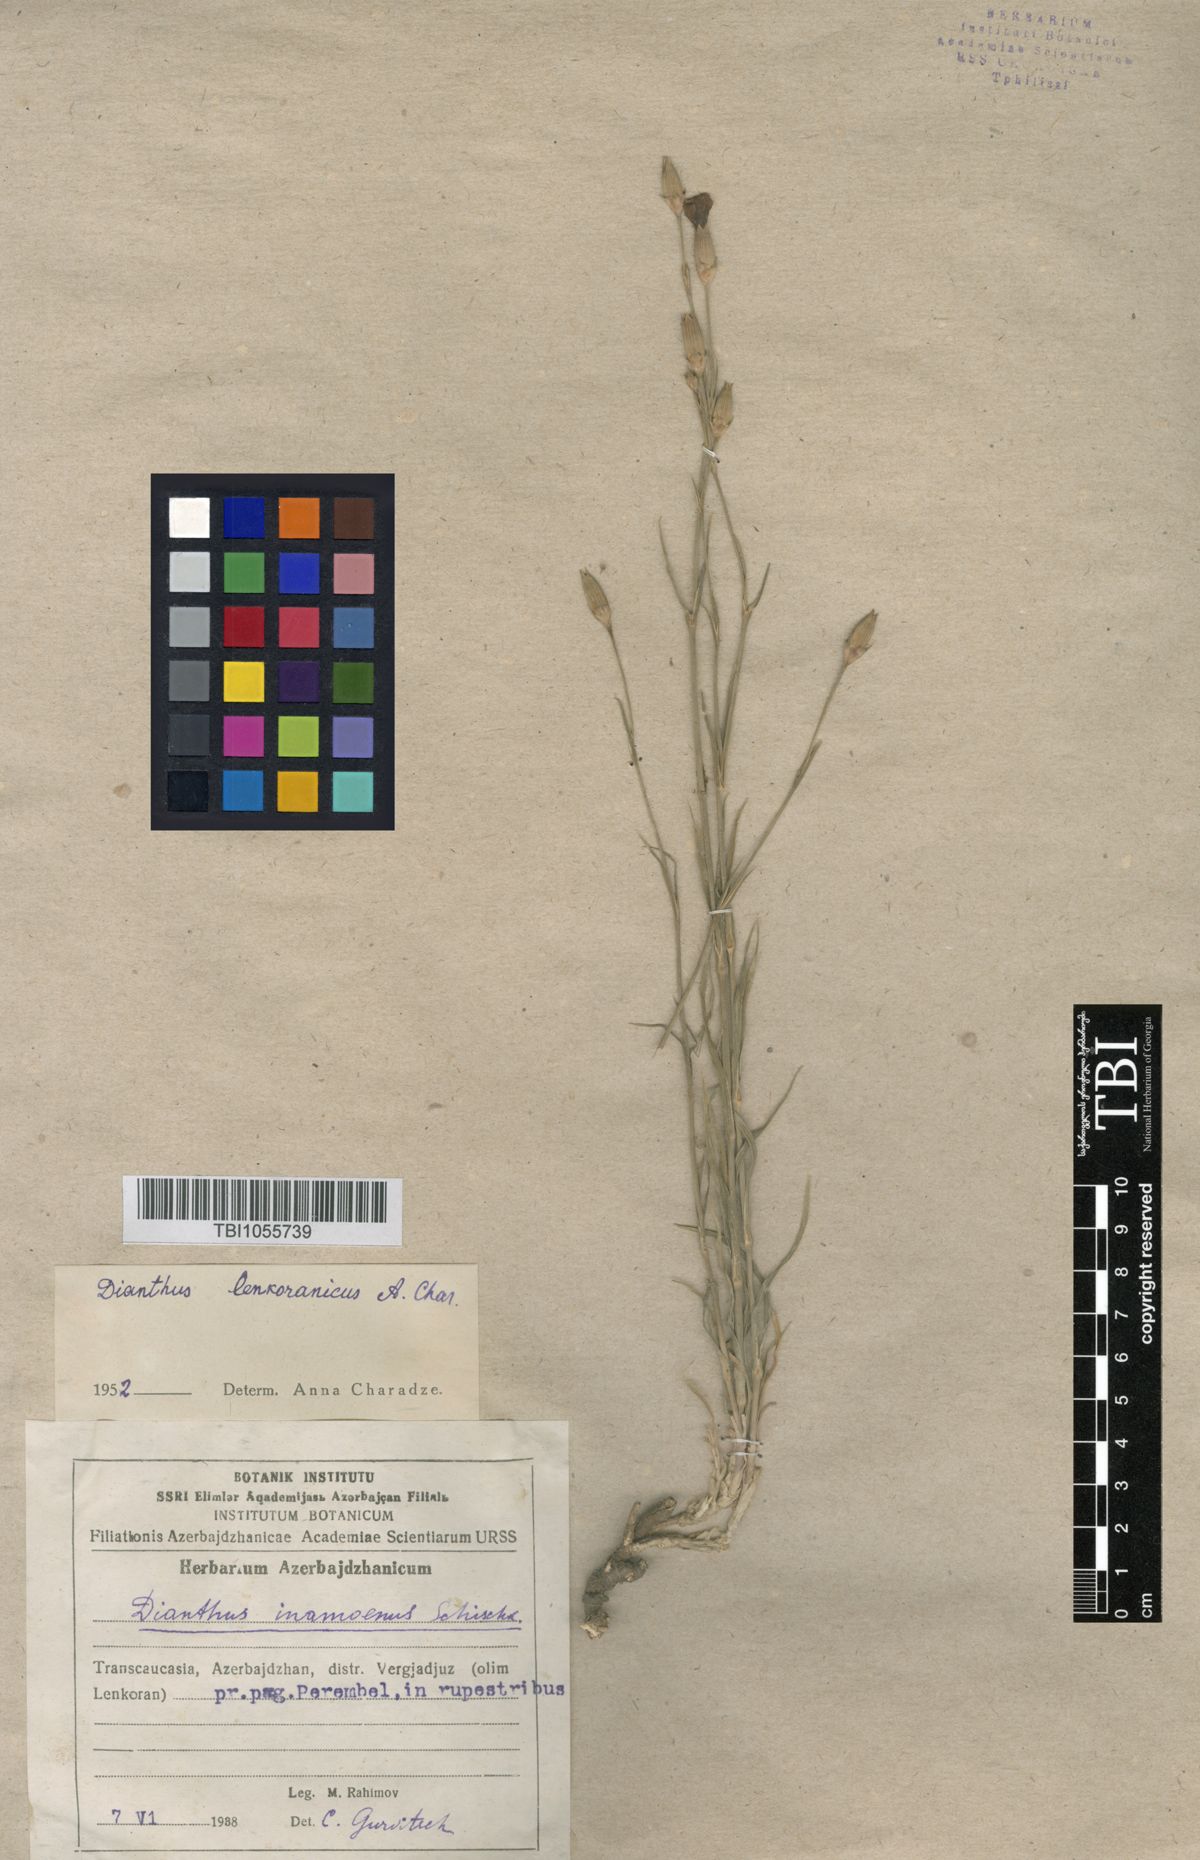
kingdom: Plantae
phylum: Tracheophyta
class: Magnoliopsida
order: Caryophyllales
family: Caryophyllaceae
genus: Dianthus
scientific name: Dianthus
